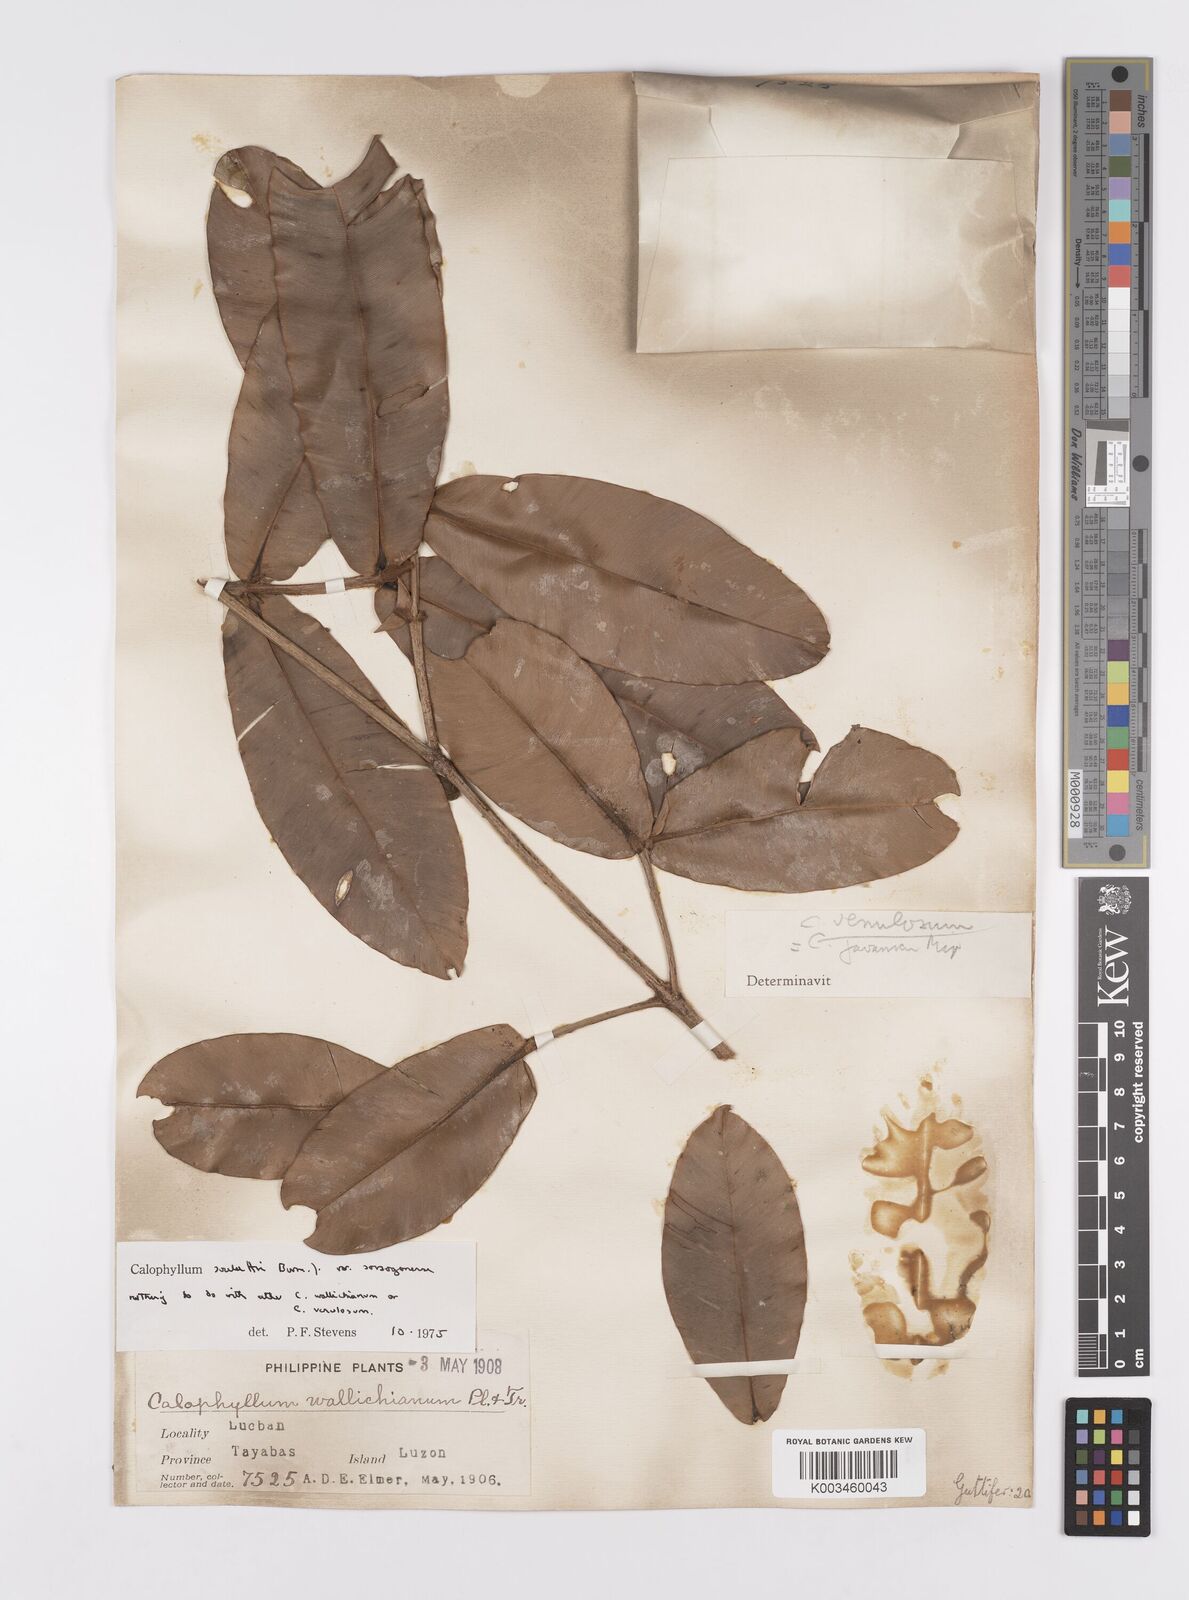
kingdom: Plantae
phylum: Tracheophyta
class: Magnoliopsida
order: Malpighiales
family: Calophyllaceae
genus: Calophyllum
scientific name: Calophyllum soulattri
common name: Bitangoor boonot
